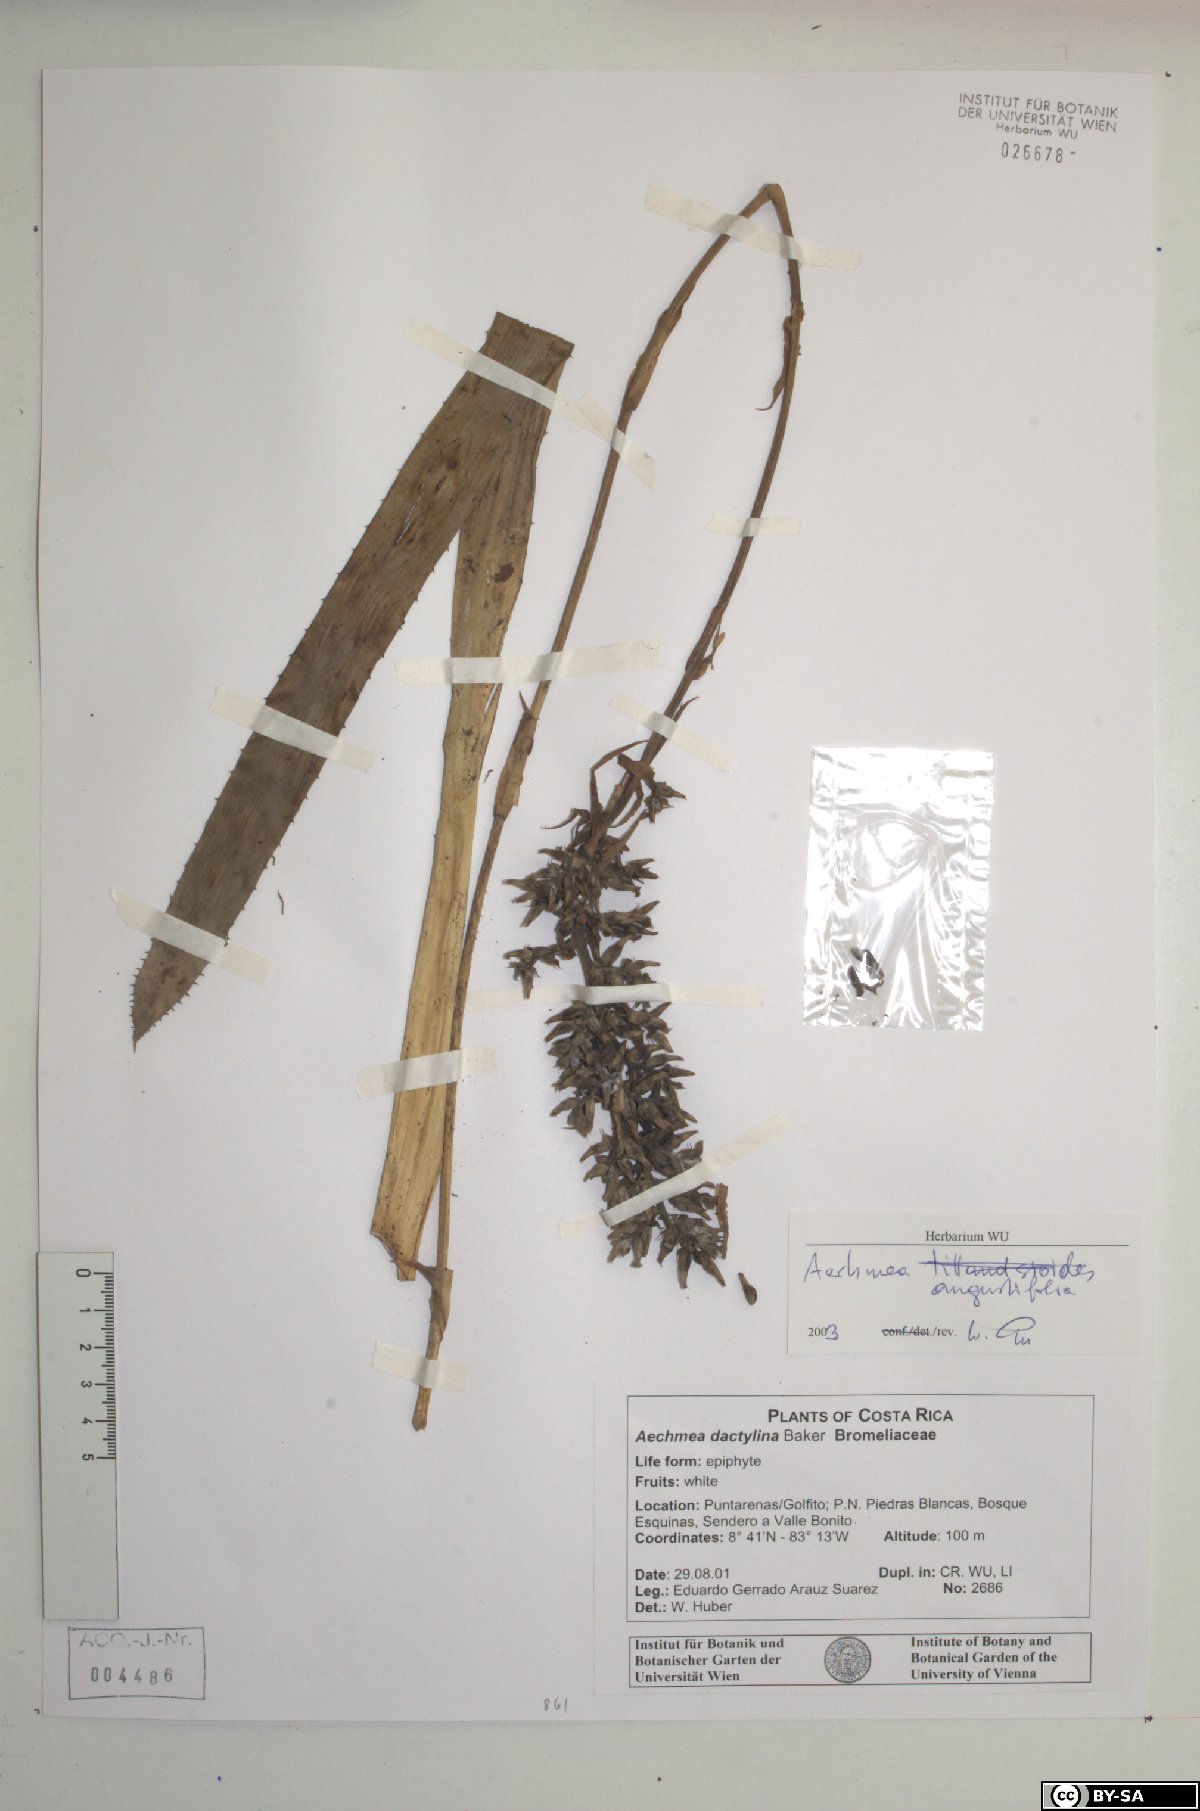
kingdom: Plantae
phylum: Tracheophyta
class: Liliopsida
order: Poales
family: Bromeliaceae
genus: Aechmea
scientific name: Aechmea angustifolia
